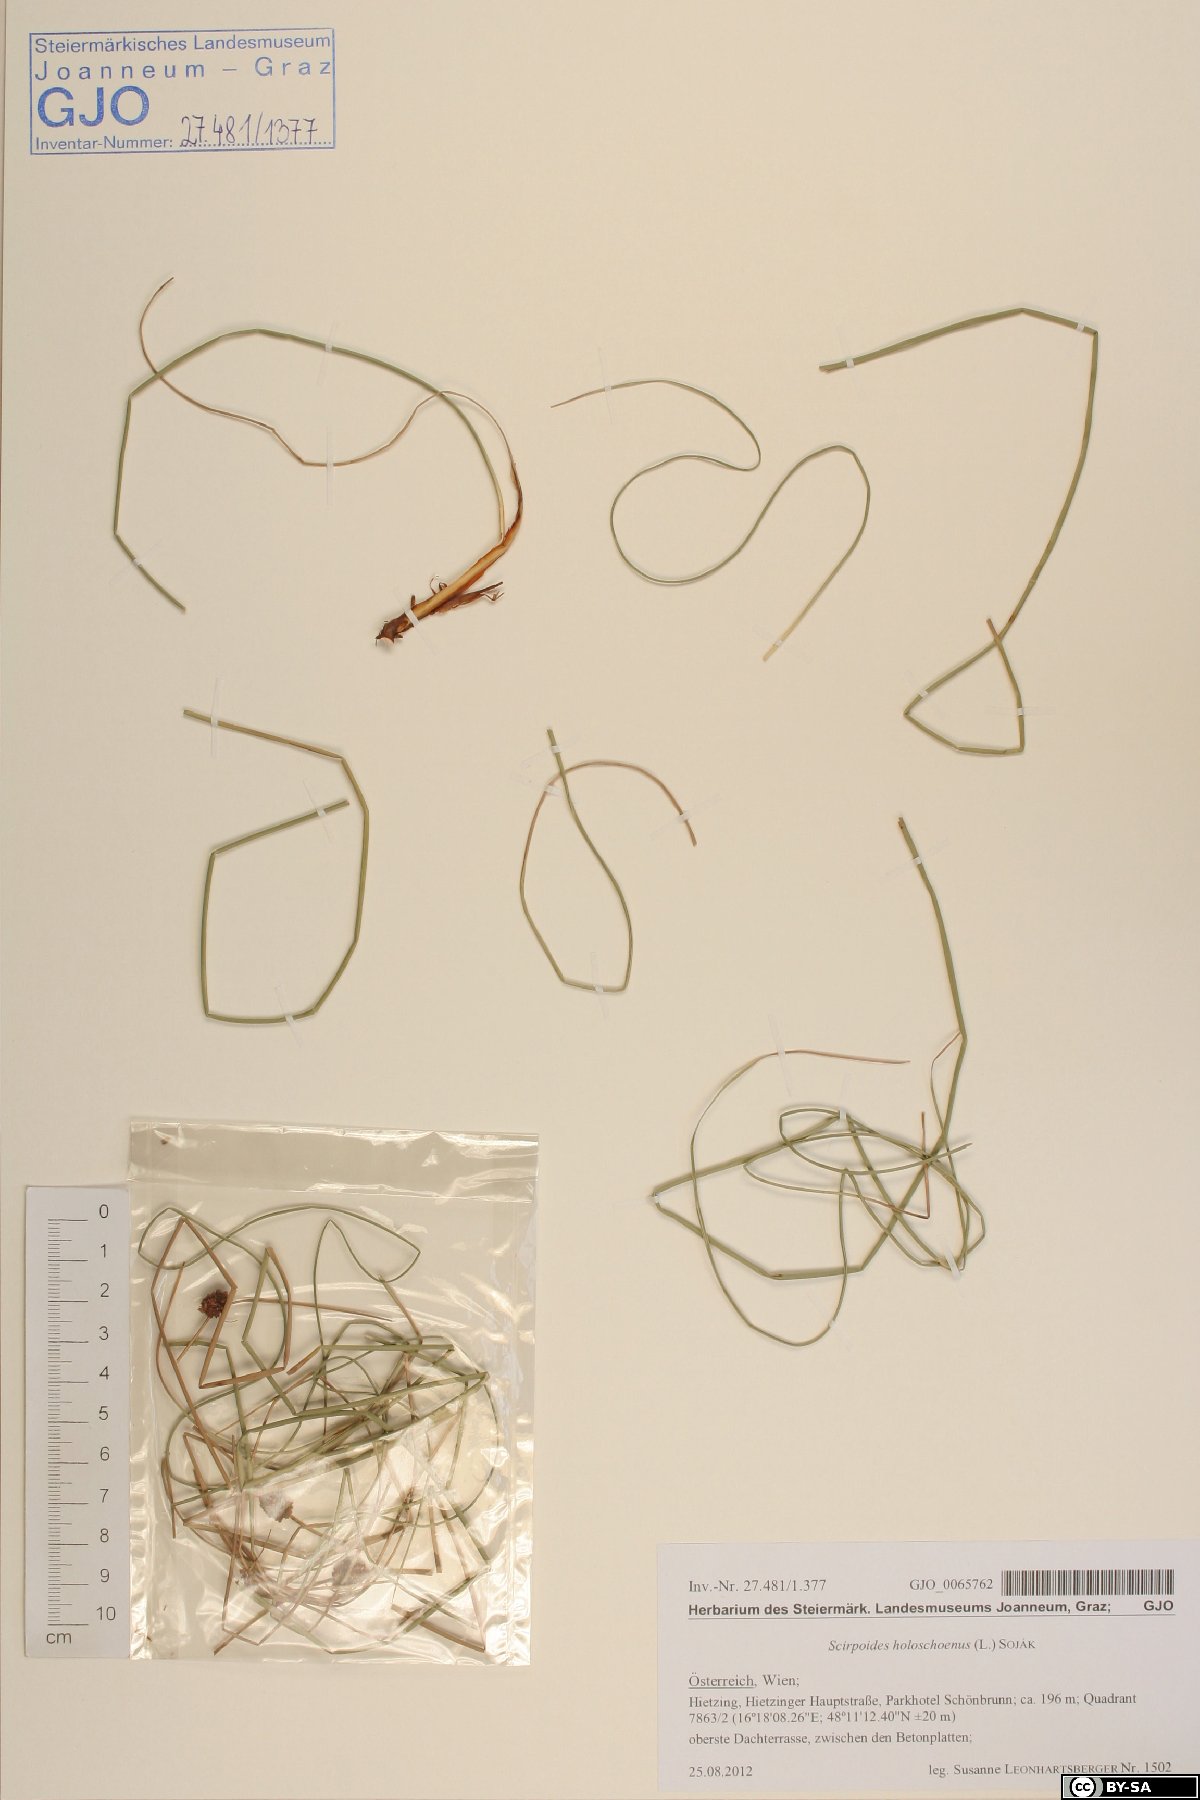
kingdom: Plantae
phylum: Tracheophyta
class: Liliopsida
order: Poales
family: Cyperaceae
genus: Scirpoides
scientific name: Scirpoides holoschoenus
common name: Round-headed club-rush
